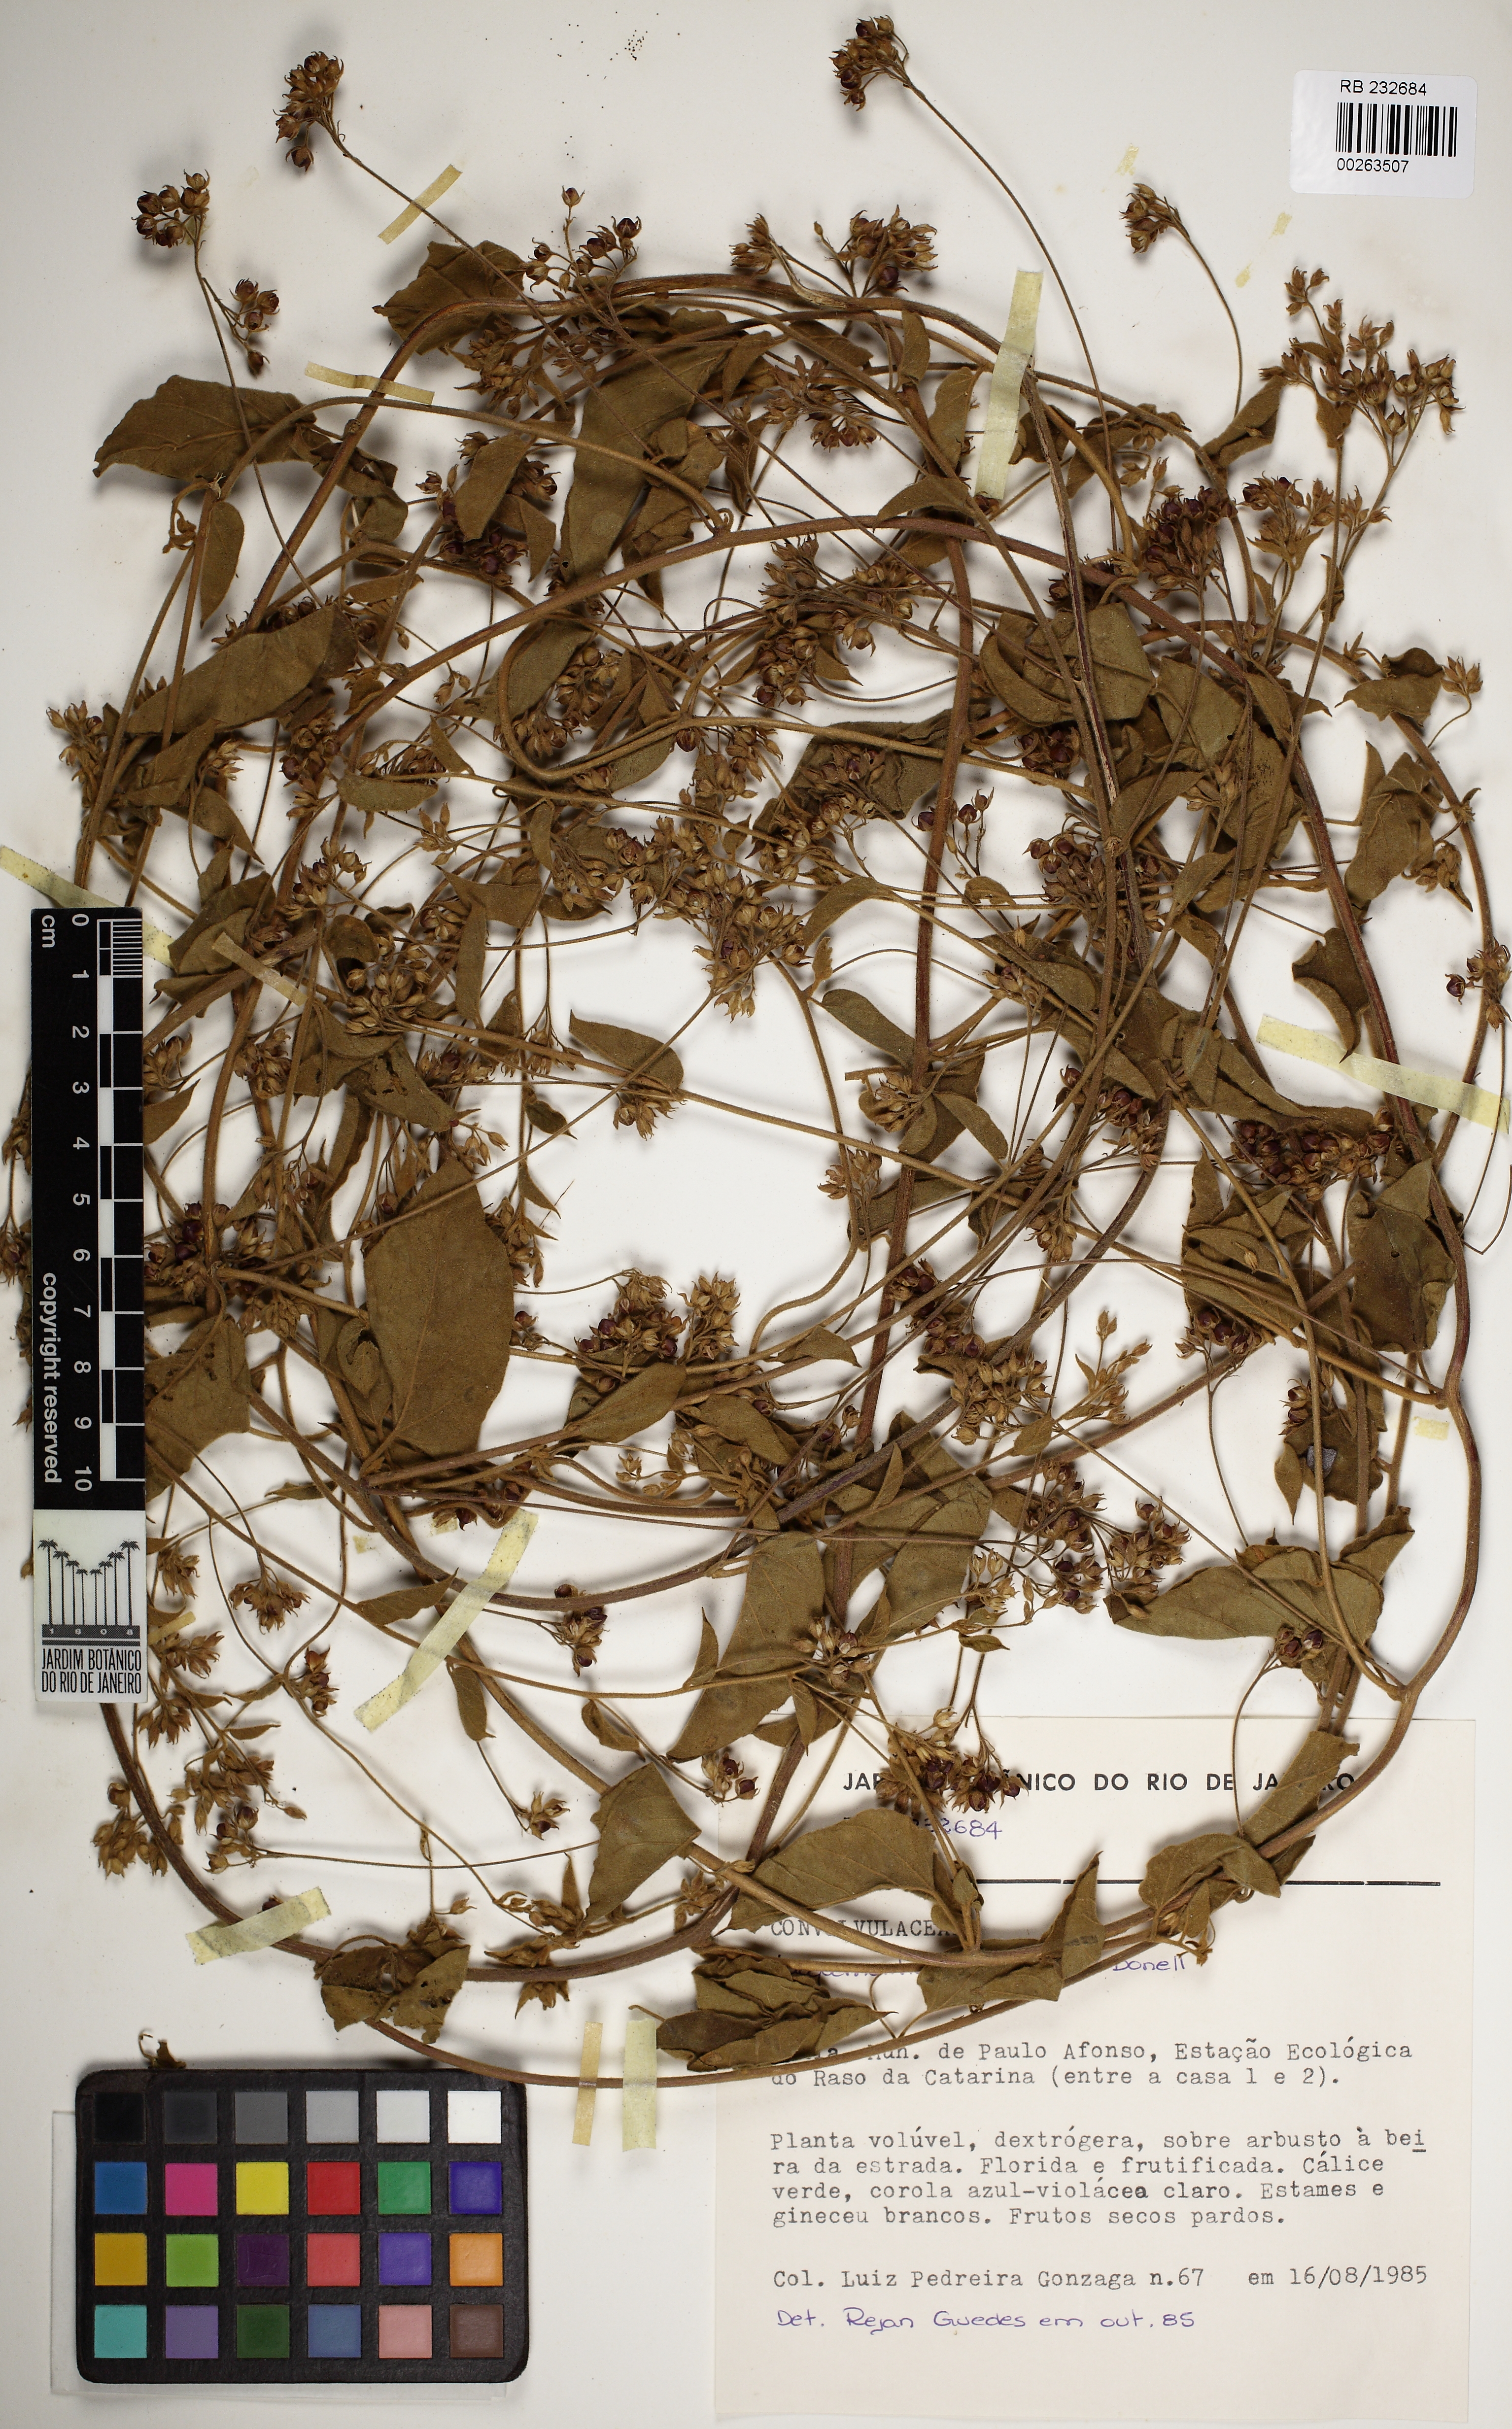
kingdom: Plantae
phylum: Tracheophyta
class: Magnoliopsida
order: Solanales
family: Convolvulaceae
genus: Jacquemontia
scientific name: Jacquemontia bahiensis
